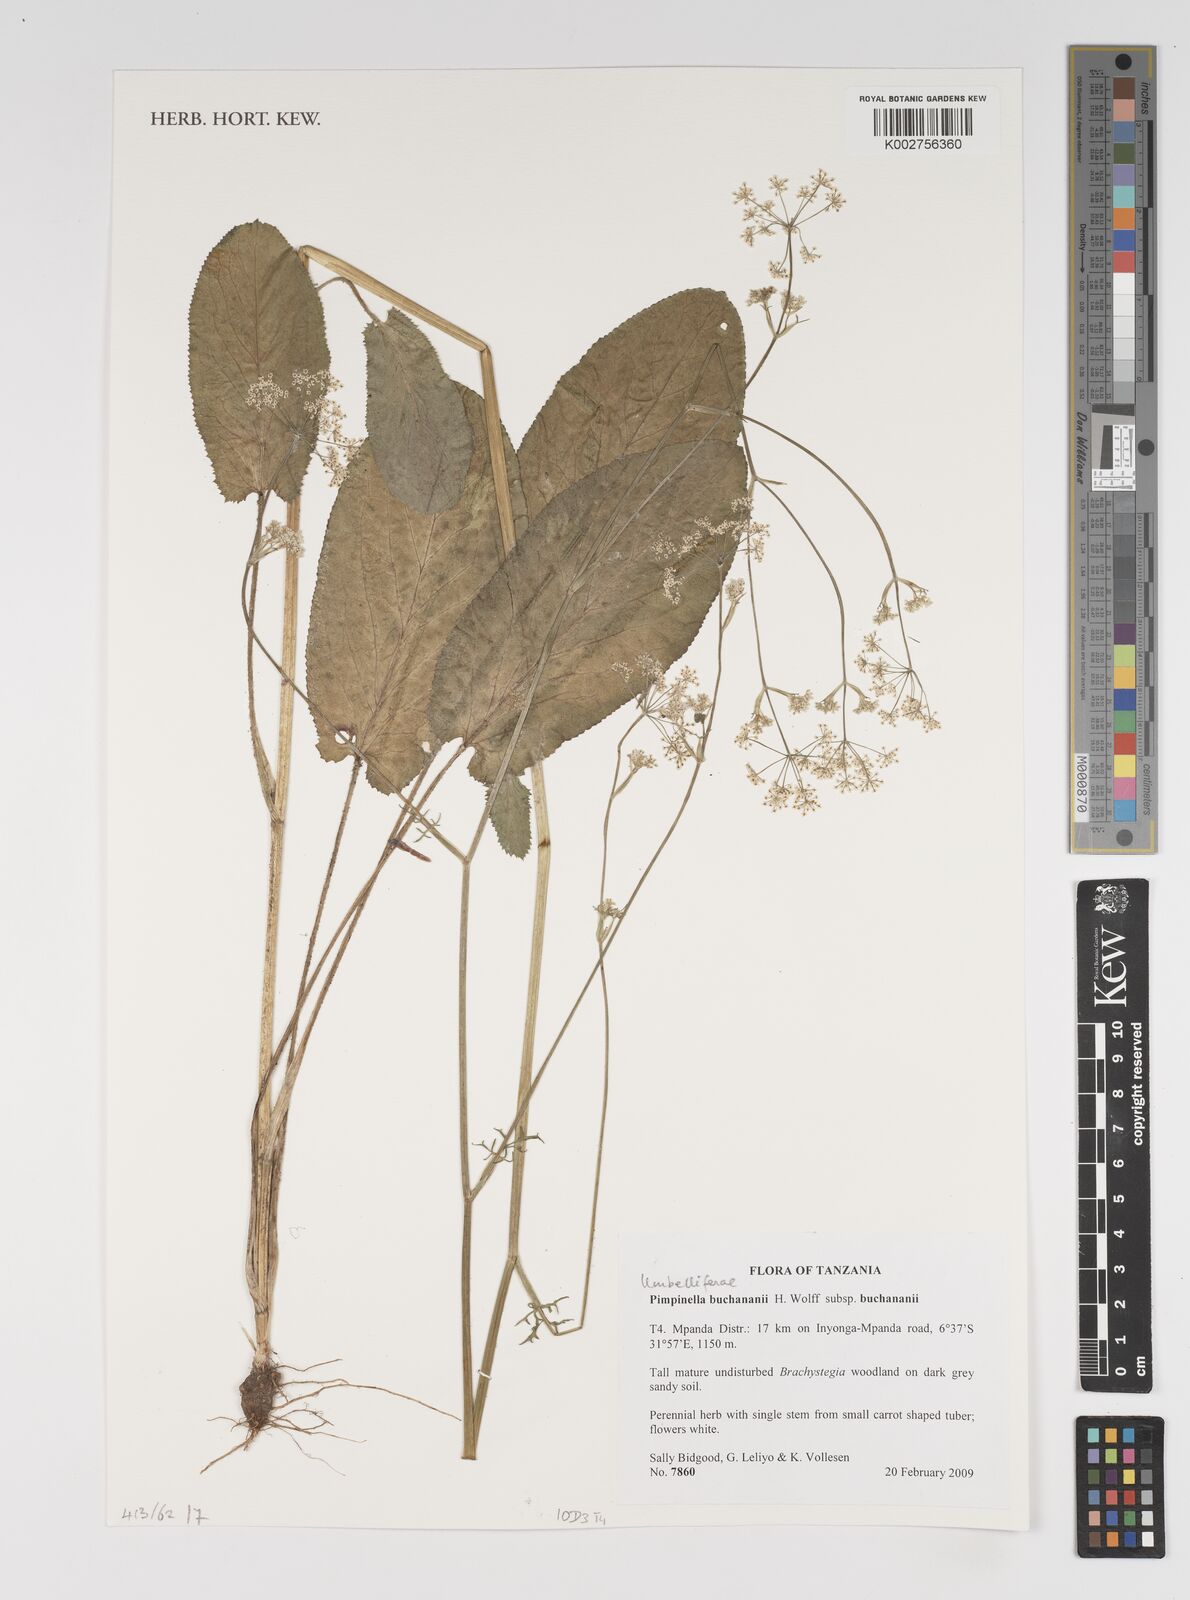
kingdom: Plantae
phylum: Tracheophyta
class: Magnoliopsida
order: Apiales
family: Apiaceae
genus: Pimpinella
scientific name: Pimpinella buchananii
